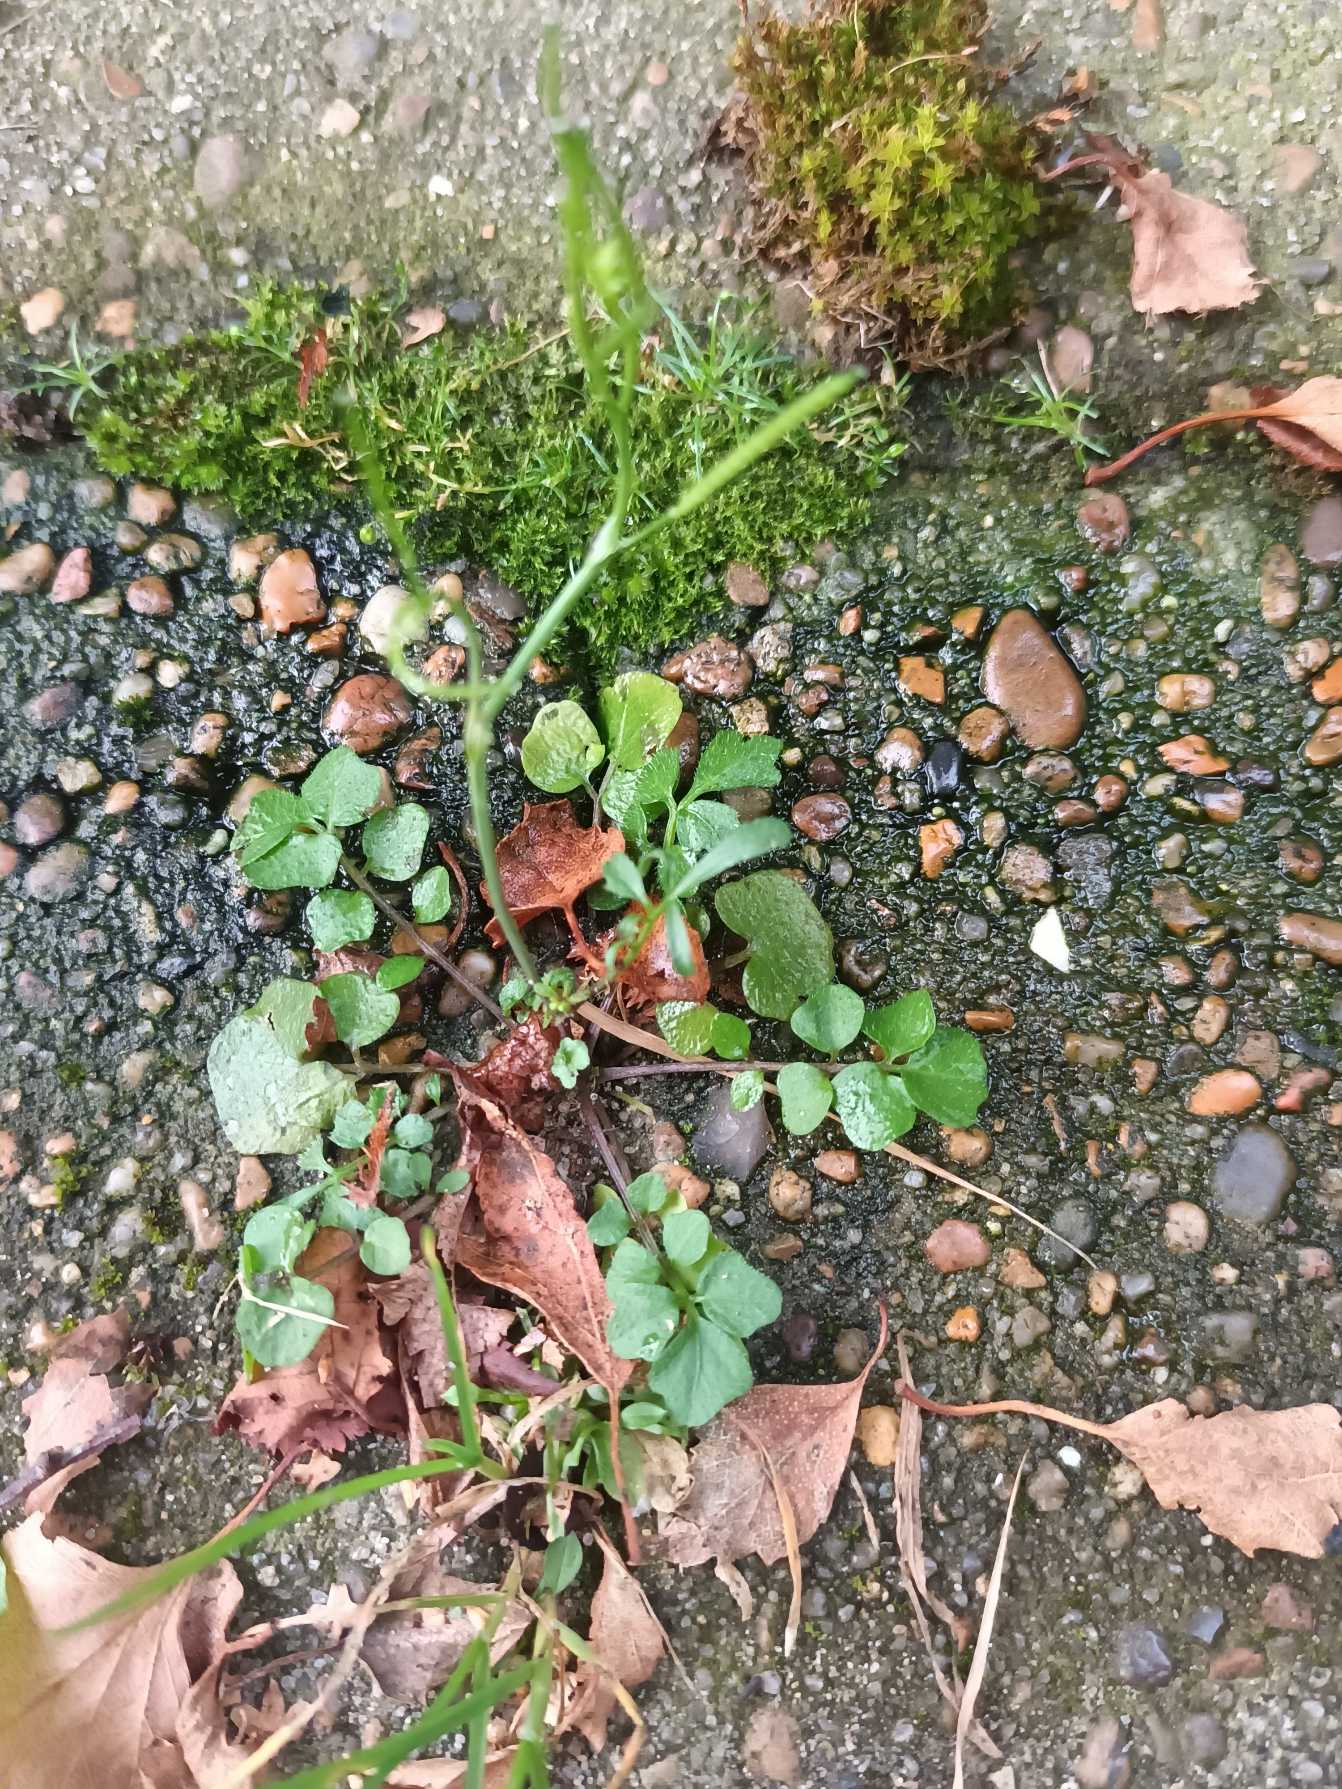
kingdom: Plantae
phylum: Tracheophyta
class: Magnoliopsida
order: Brassicales
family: Brassicaceae
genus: Cardamine
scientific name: Cardamine hirsuta
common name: Roset-springklap
